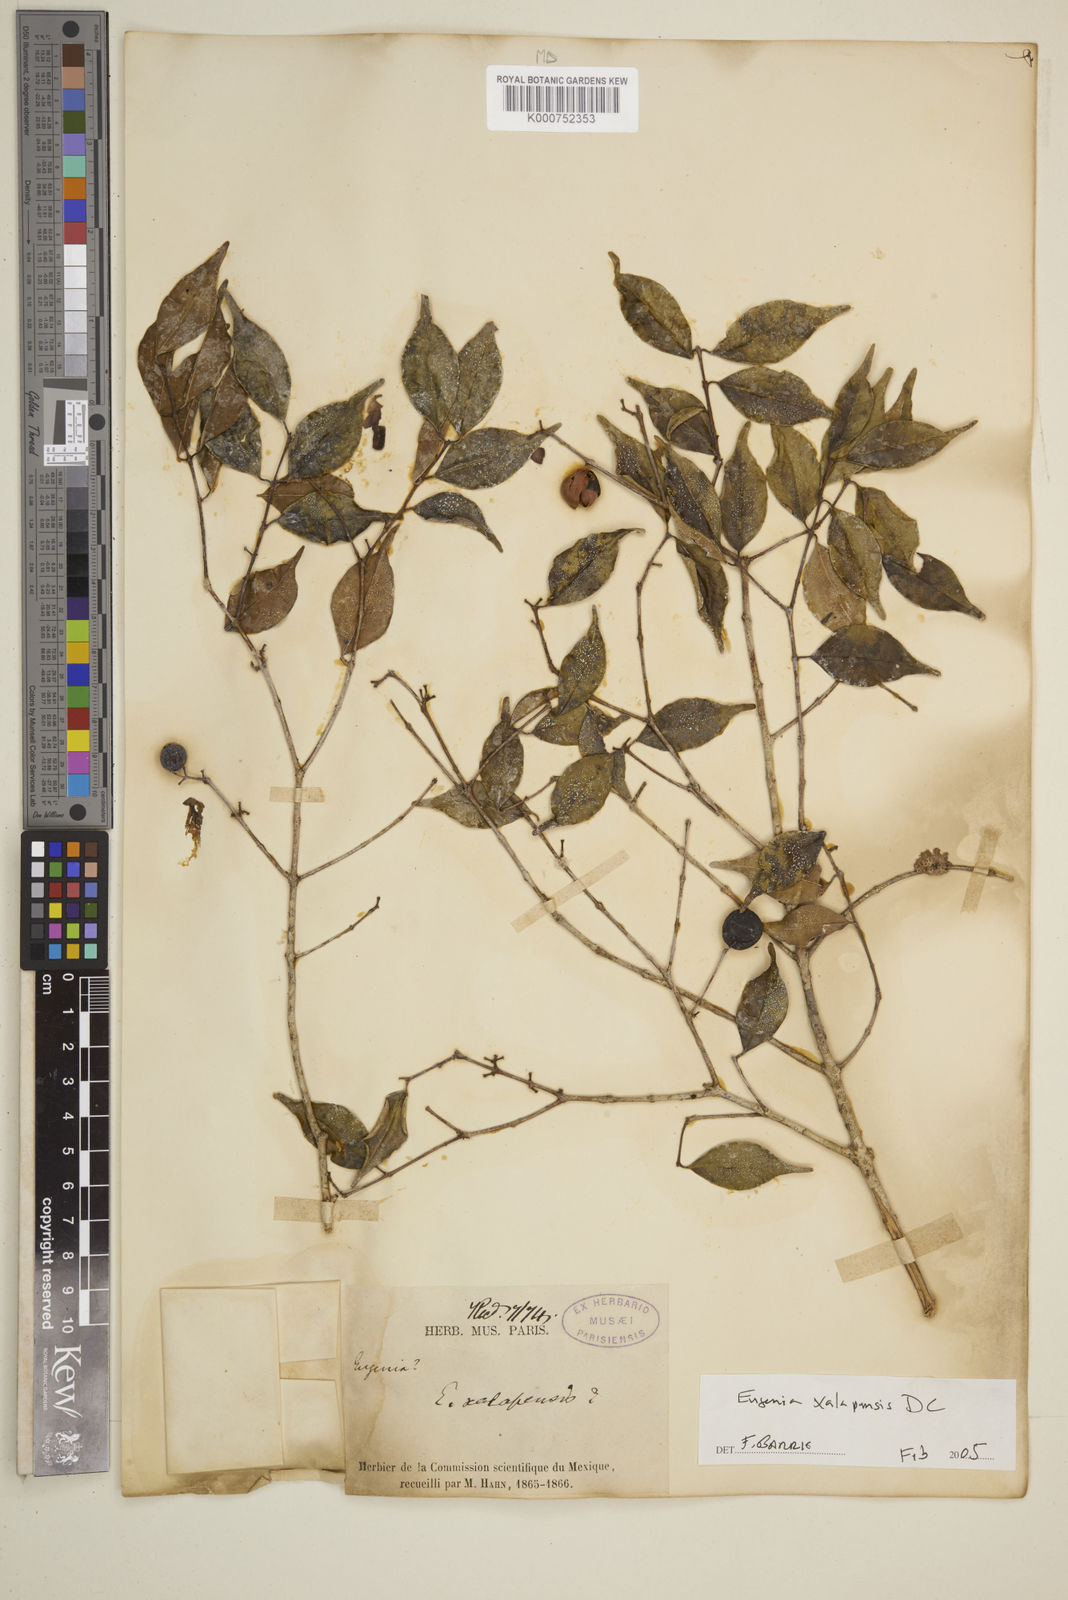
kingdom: Plantae
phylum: Tracheophyta
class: Magnoliopsida
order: Myrtales
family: Myrtaceae
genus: Eugenia
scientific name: Eugenia xalapensis
